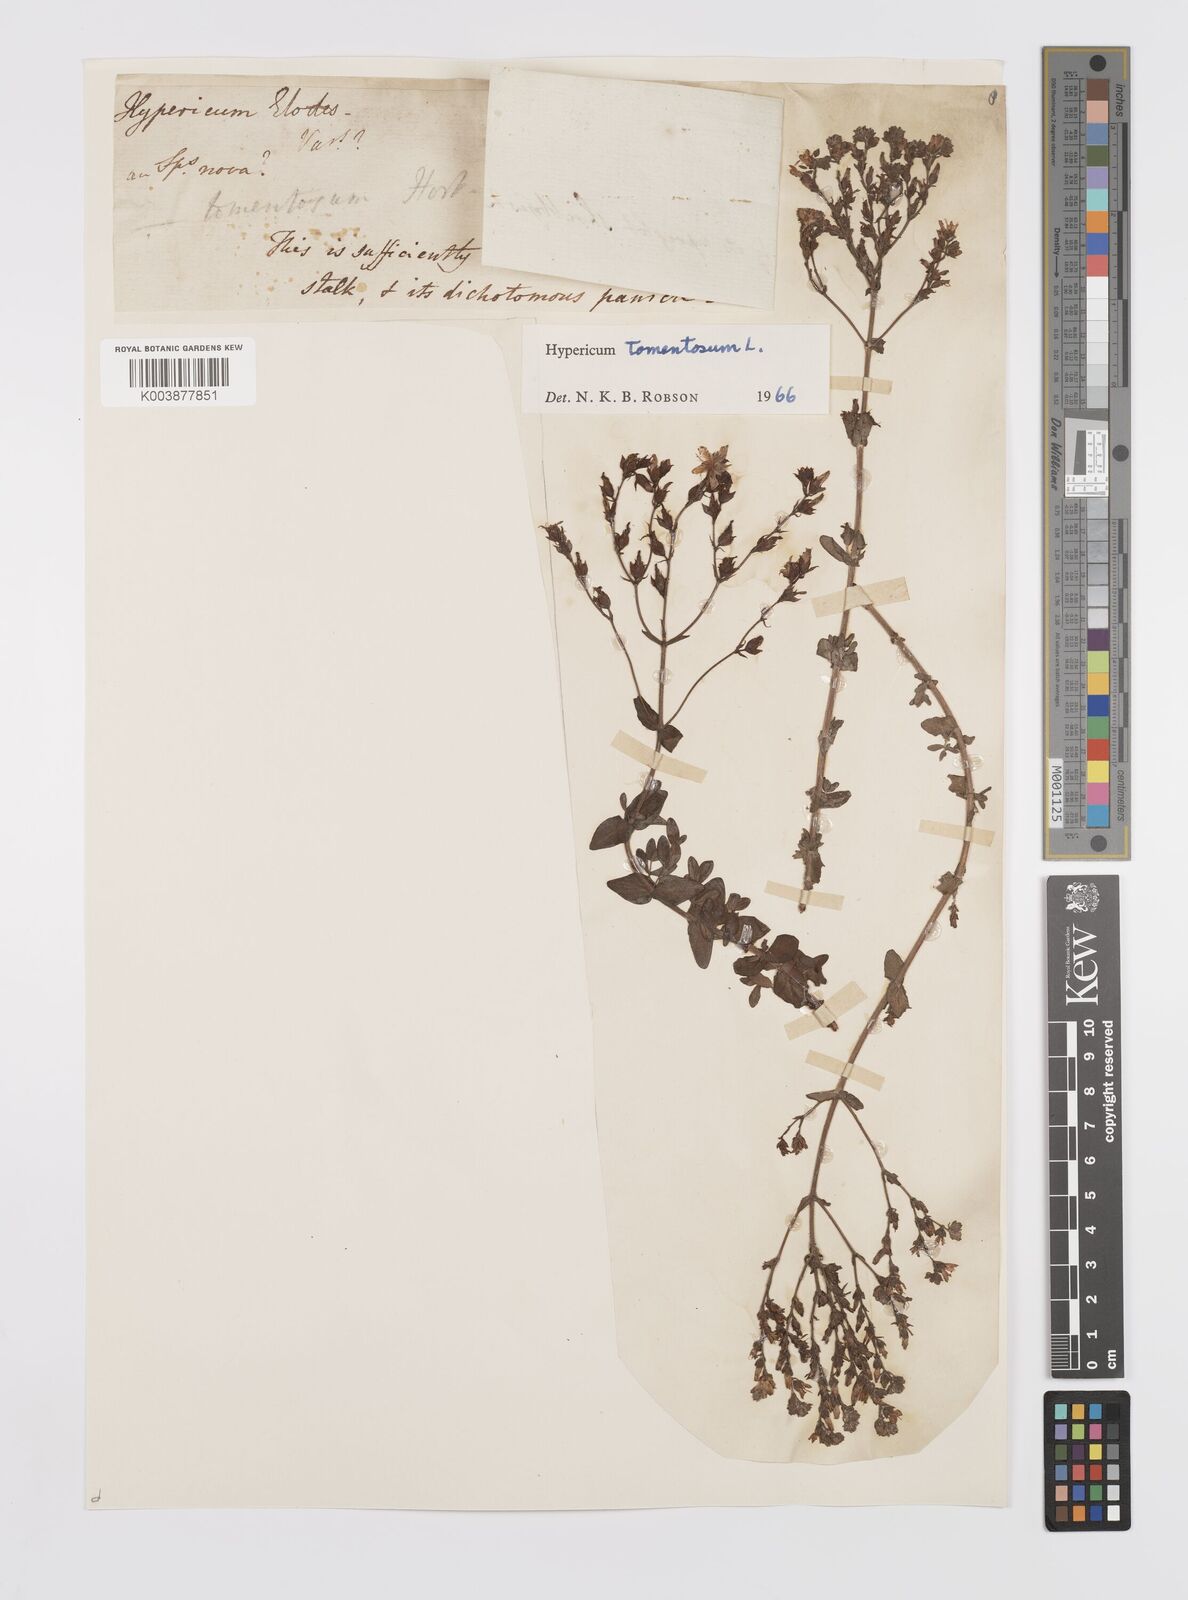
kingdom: Plantae
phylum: Tracheophyta
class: Magnoliopsida
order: Malpighiales
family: Hypericaceae
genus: Hypericum
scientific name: Hypericum tomentosum
